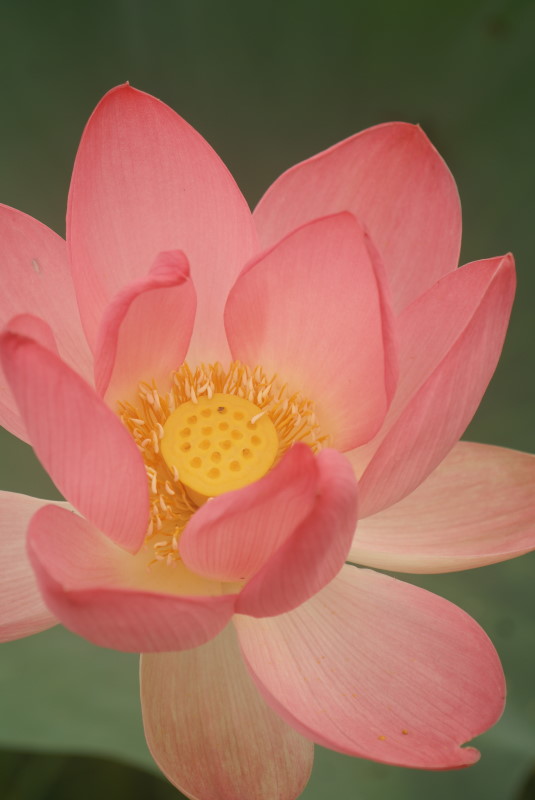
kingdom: Plantae
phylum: Tracheophyta
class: Magnoliopsida
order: Proteales
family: Nelumbonaceae
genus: Nelumbo
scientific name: Nelumbo nucifera
